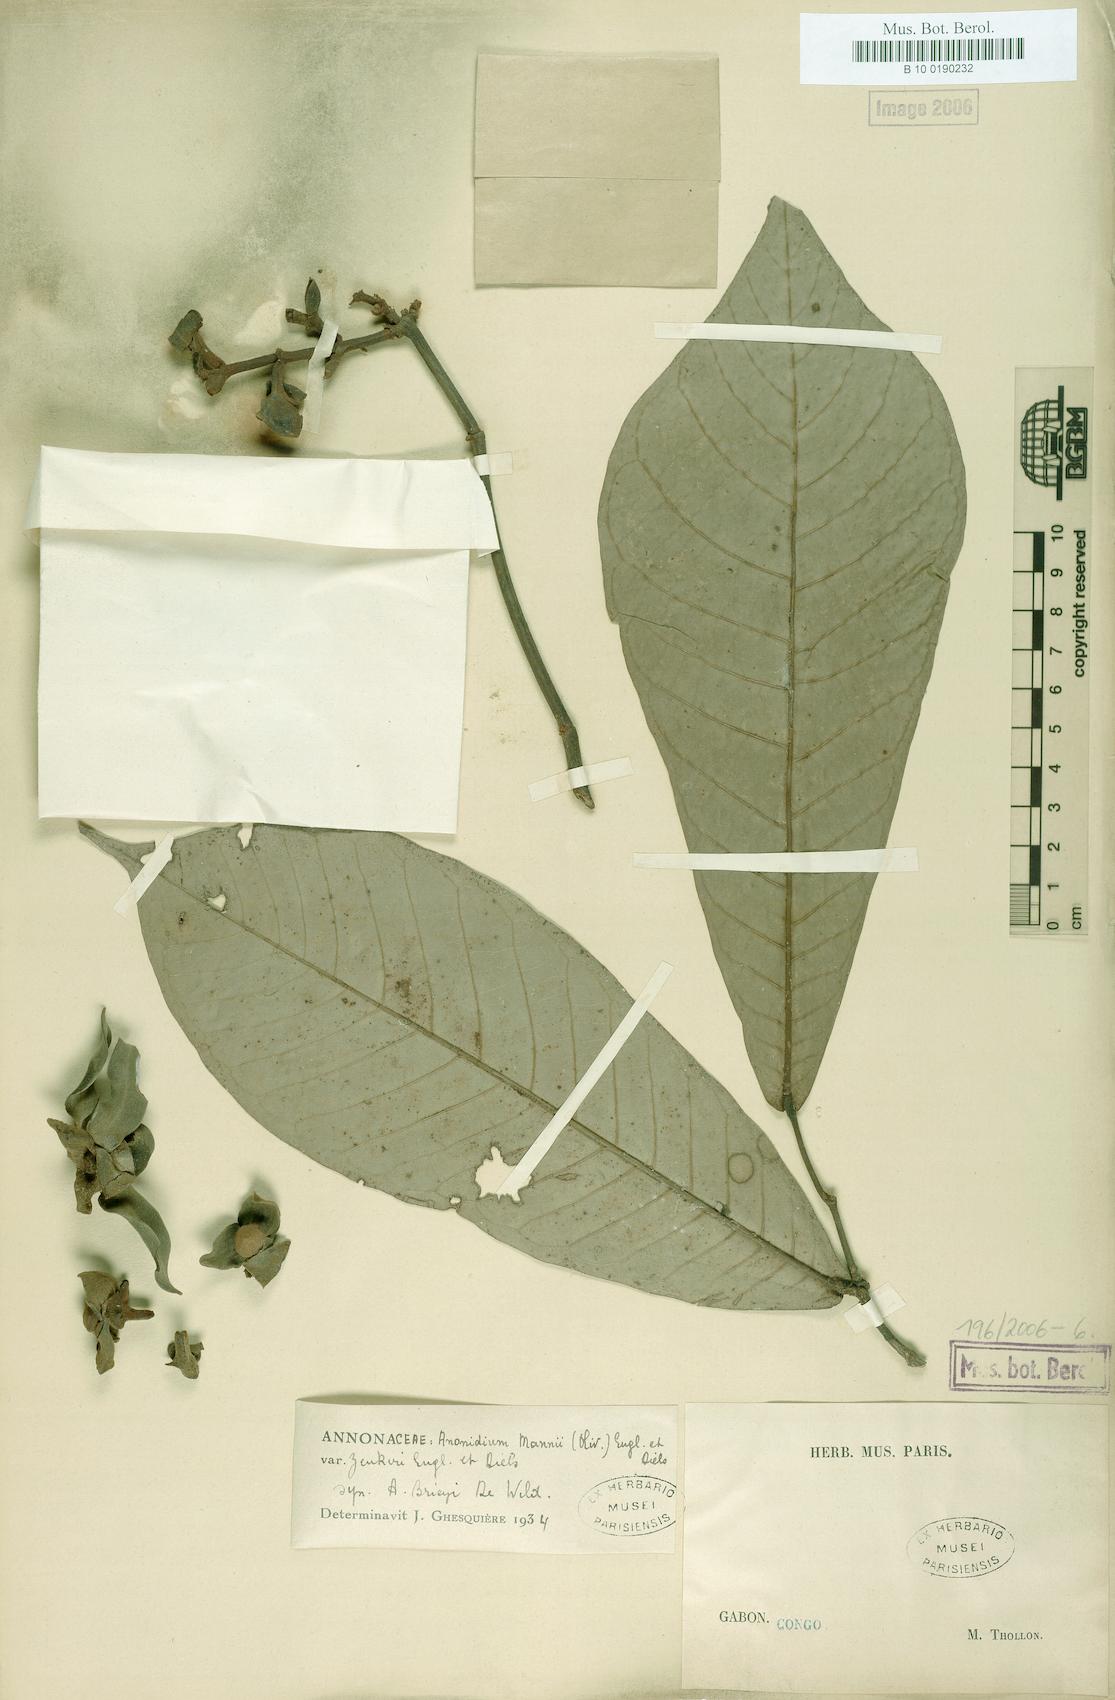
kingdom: Plantae
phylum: Tracheophyta
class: Magnoliopsida
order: Magnoliales
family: Annonaceae
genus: Anonidium
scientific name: Anonidium floribundum
